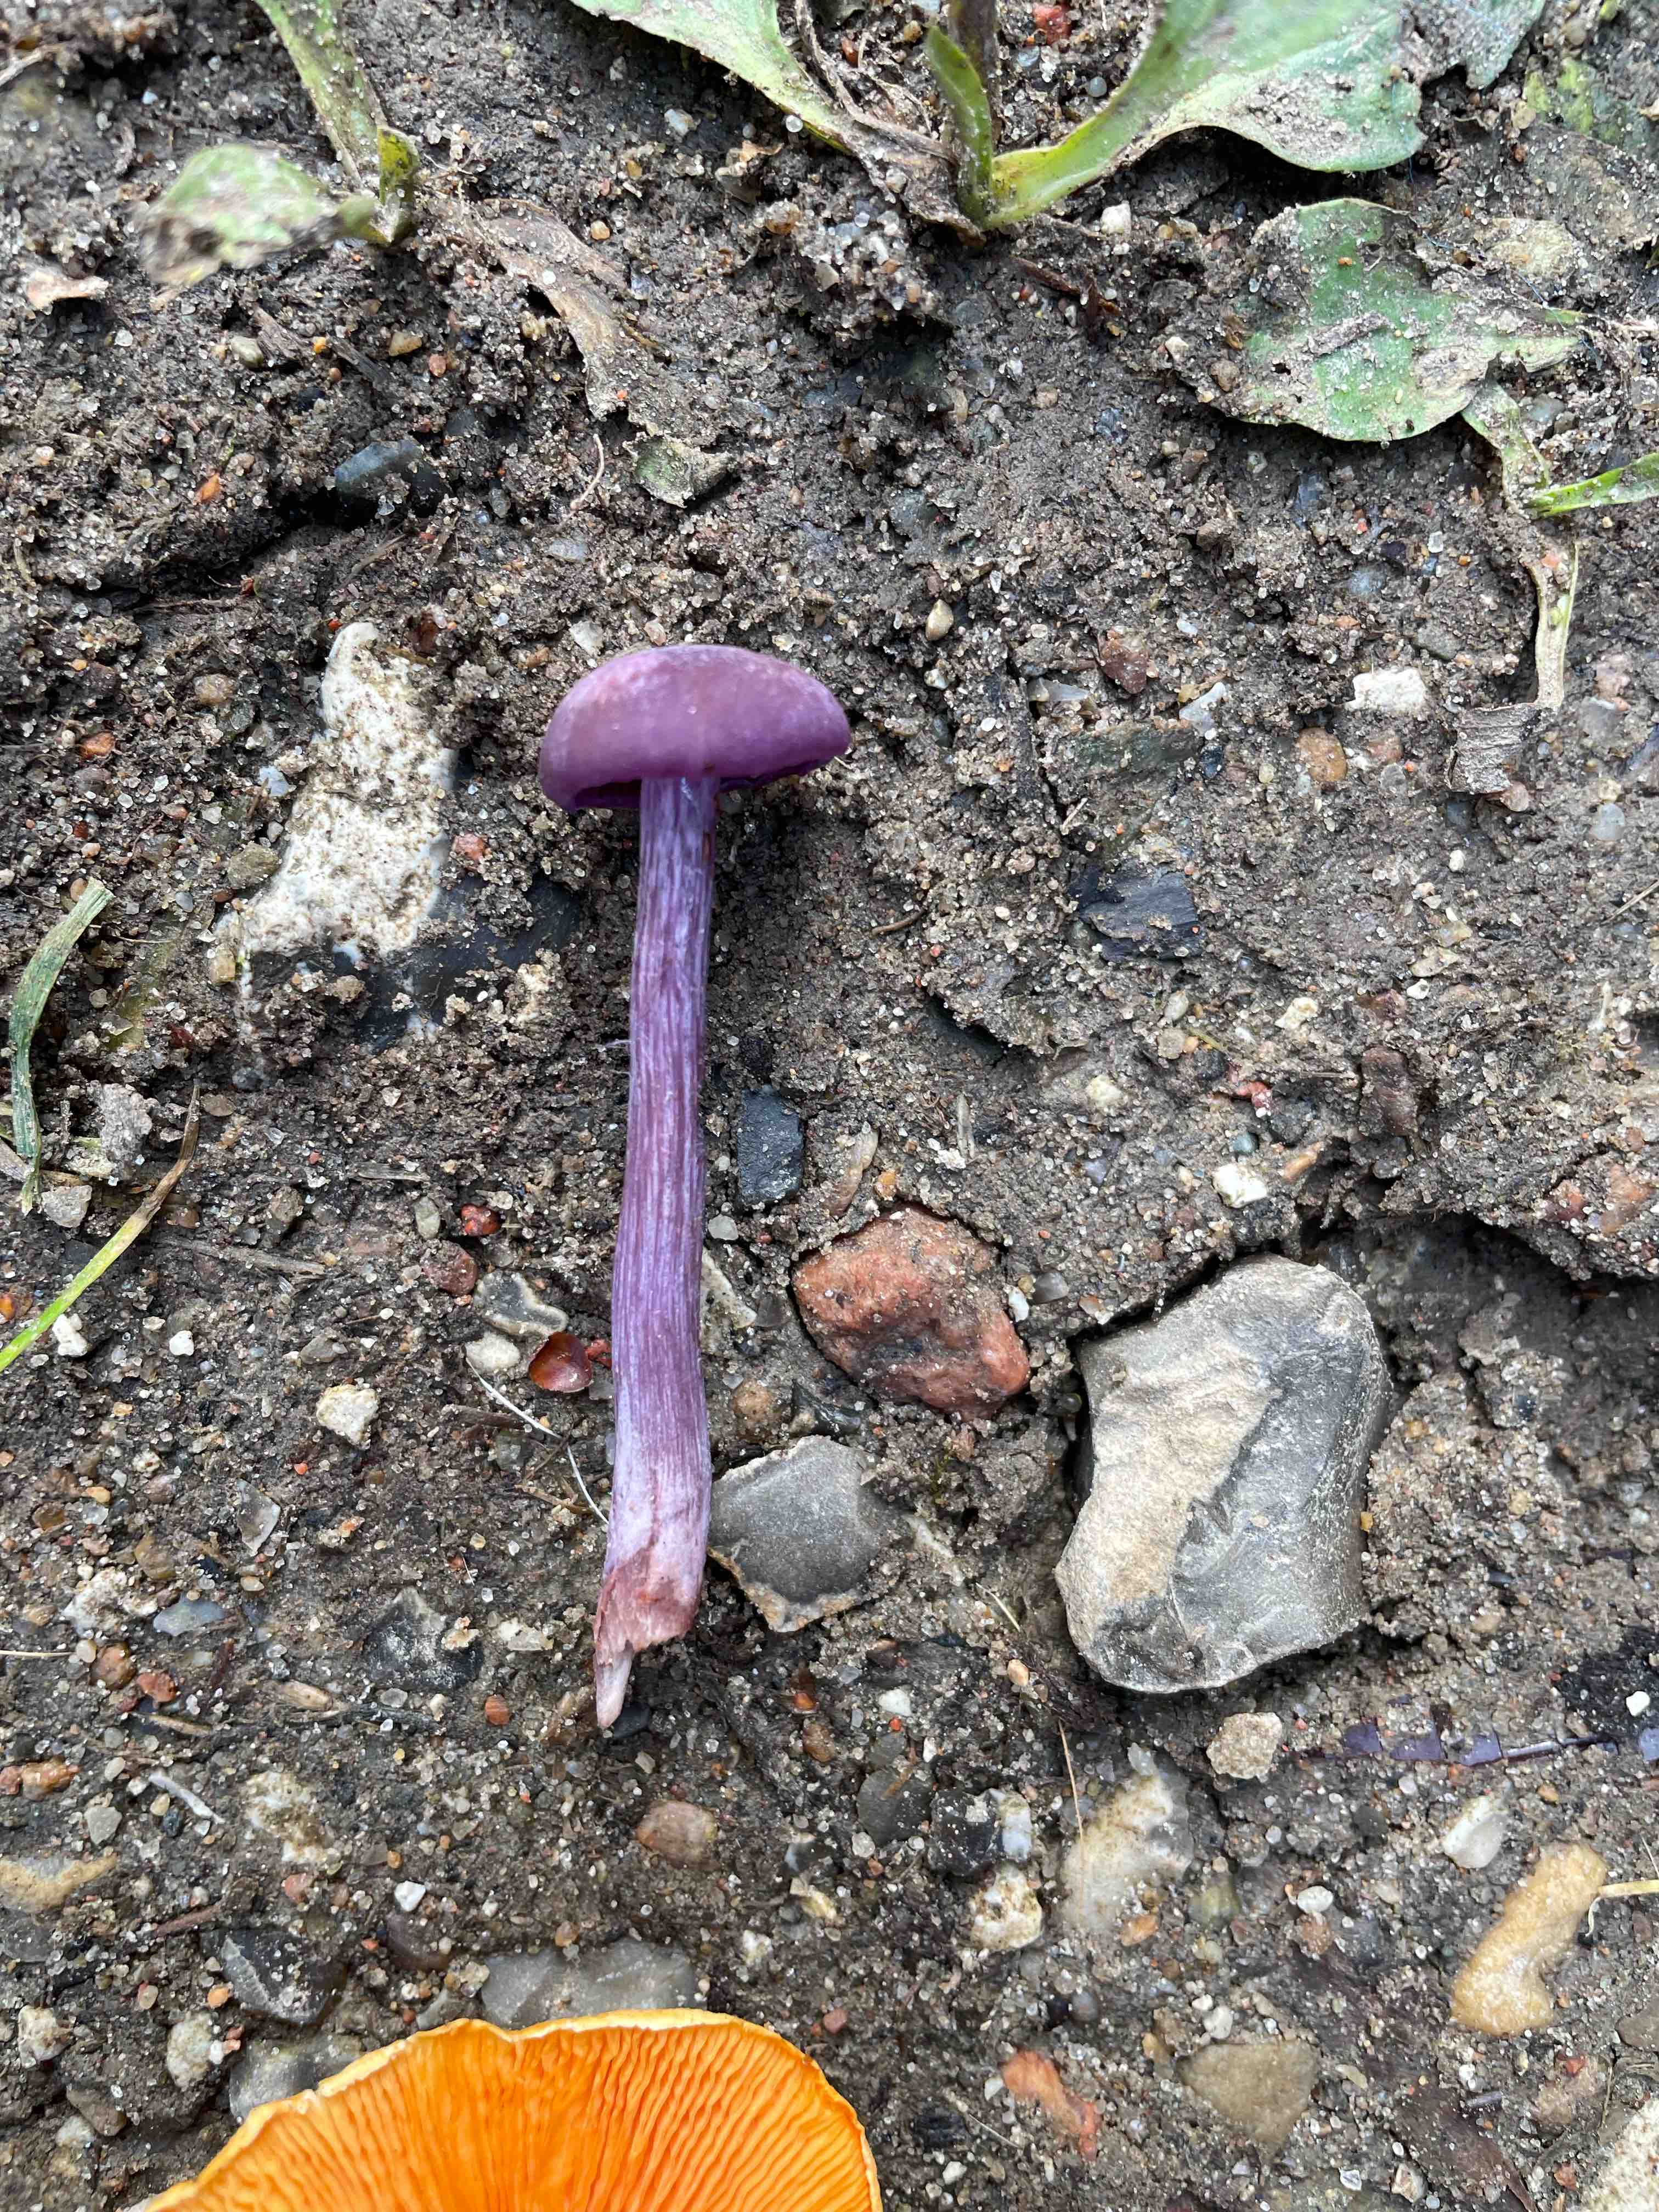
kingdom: Fungi
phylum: Basidiomycota
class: Agaricomycetes
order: Agaricales
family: Hydnangiaceae
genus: Laccaria
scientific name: Laccaria amethystina
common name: violet ametysthat
